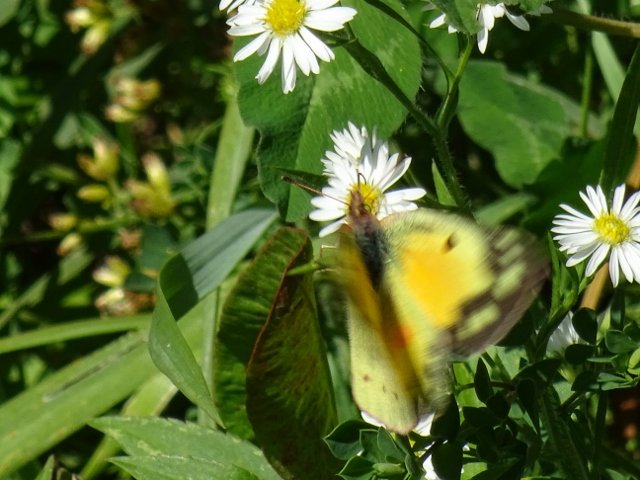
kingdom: Animalia
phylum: Arthropoda
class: Insecta
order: Lepidoptera
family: Pieridae
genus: Colias
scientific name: Colias eurytheme
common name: Orange Sulphur
